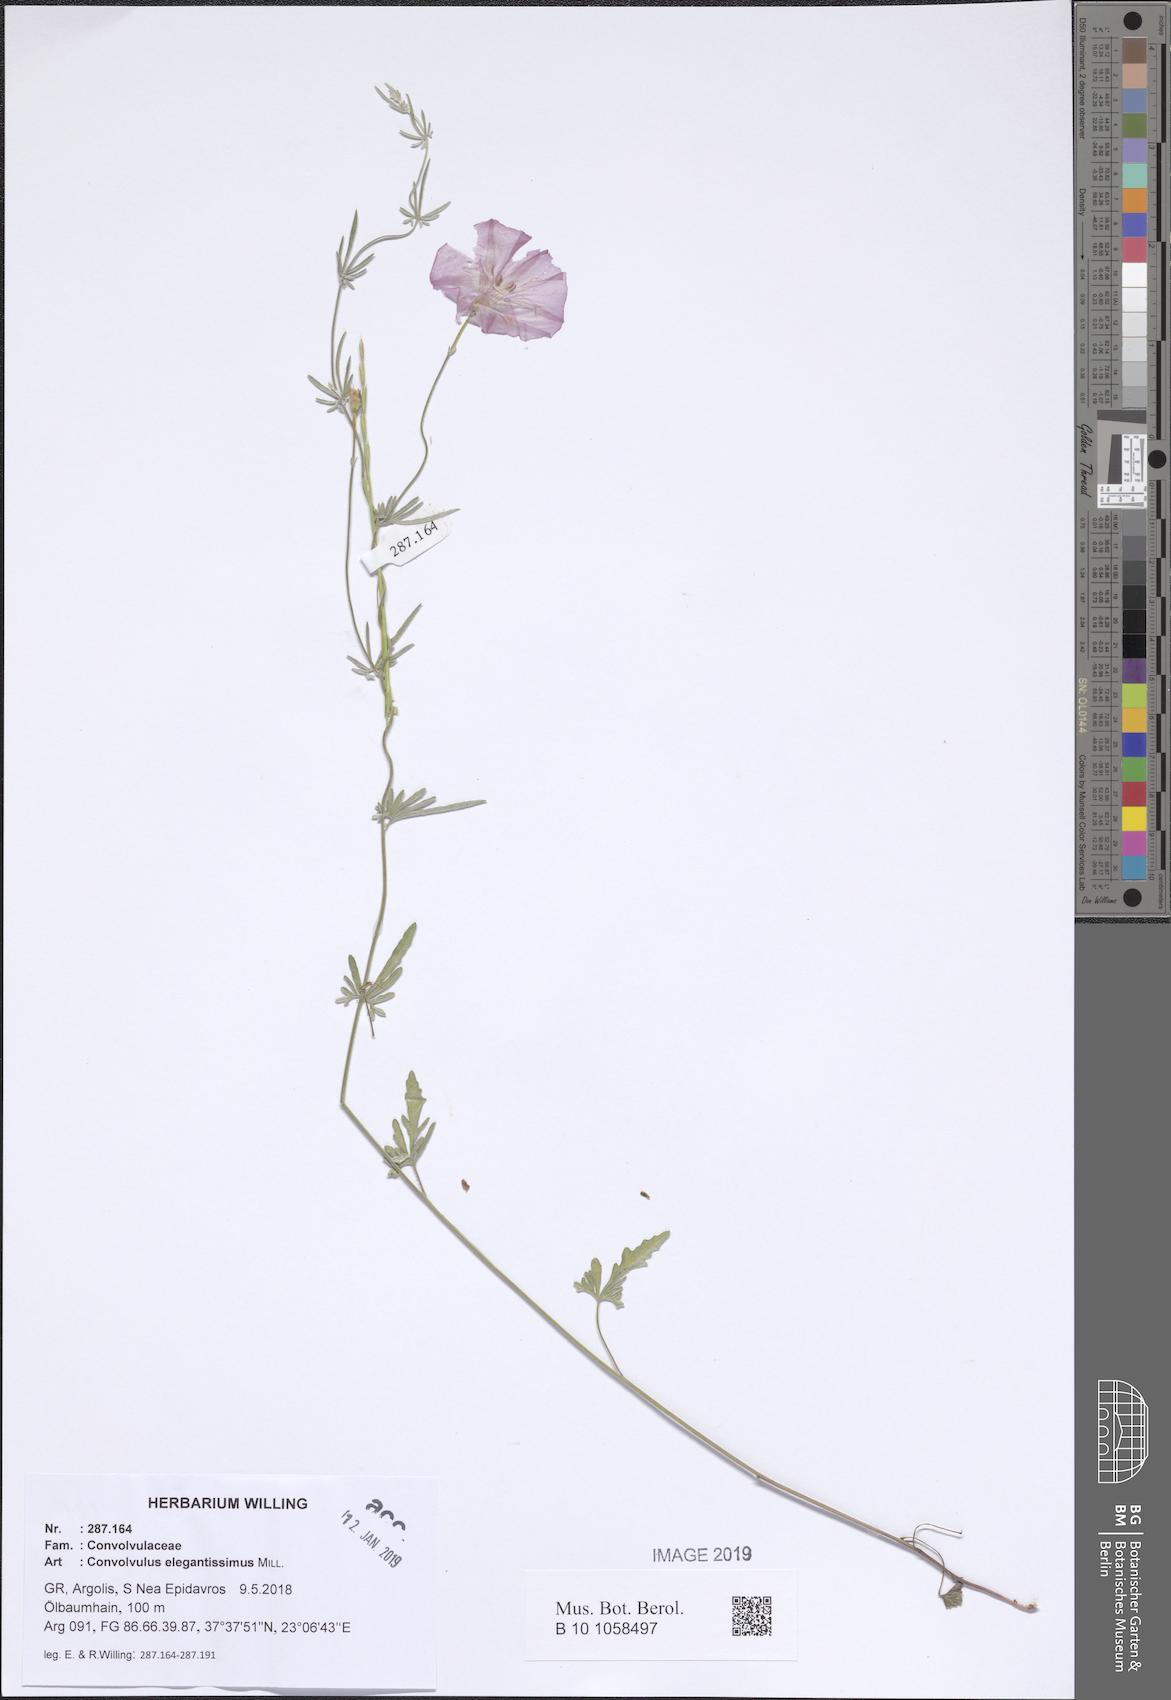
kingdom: Plantae
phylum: Tracheophyta
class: Magnoliopsida
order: Solanales
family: Convolvulaceae
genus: Convolvulus
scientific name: Convolvulus elegantissimus
